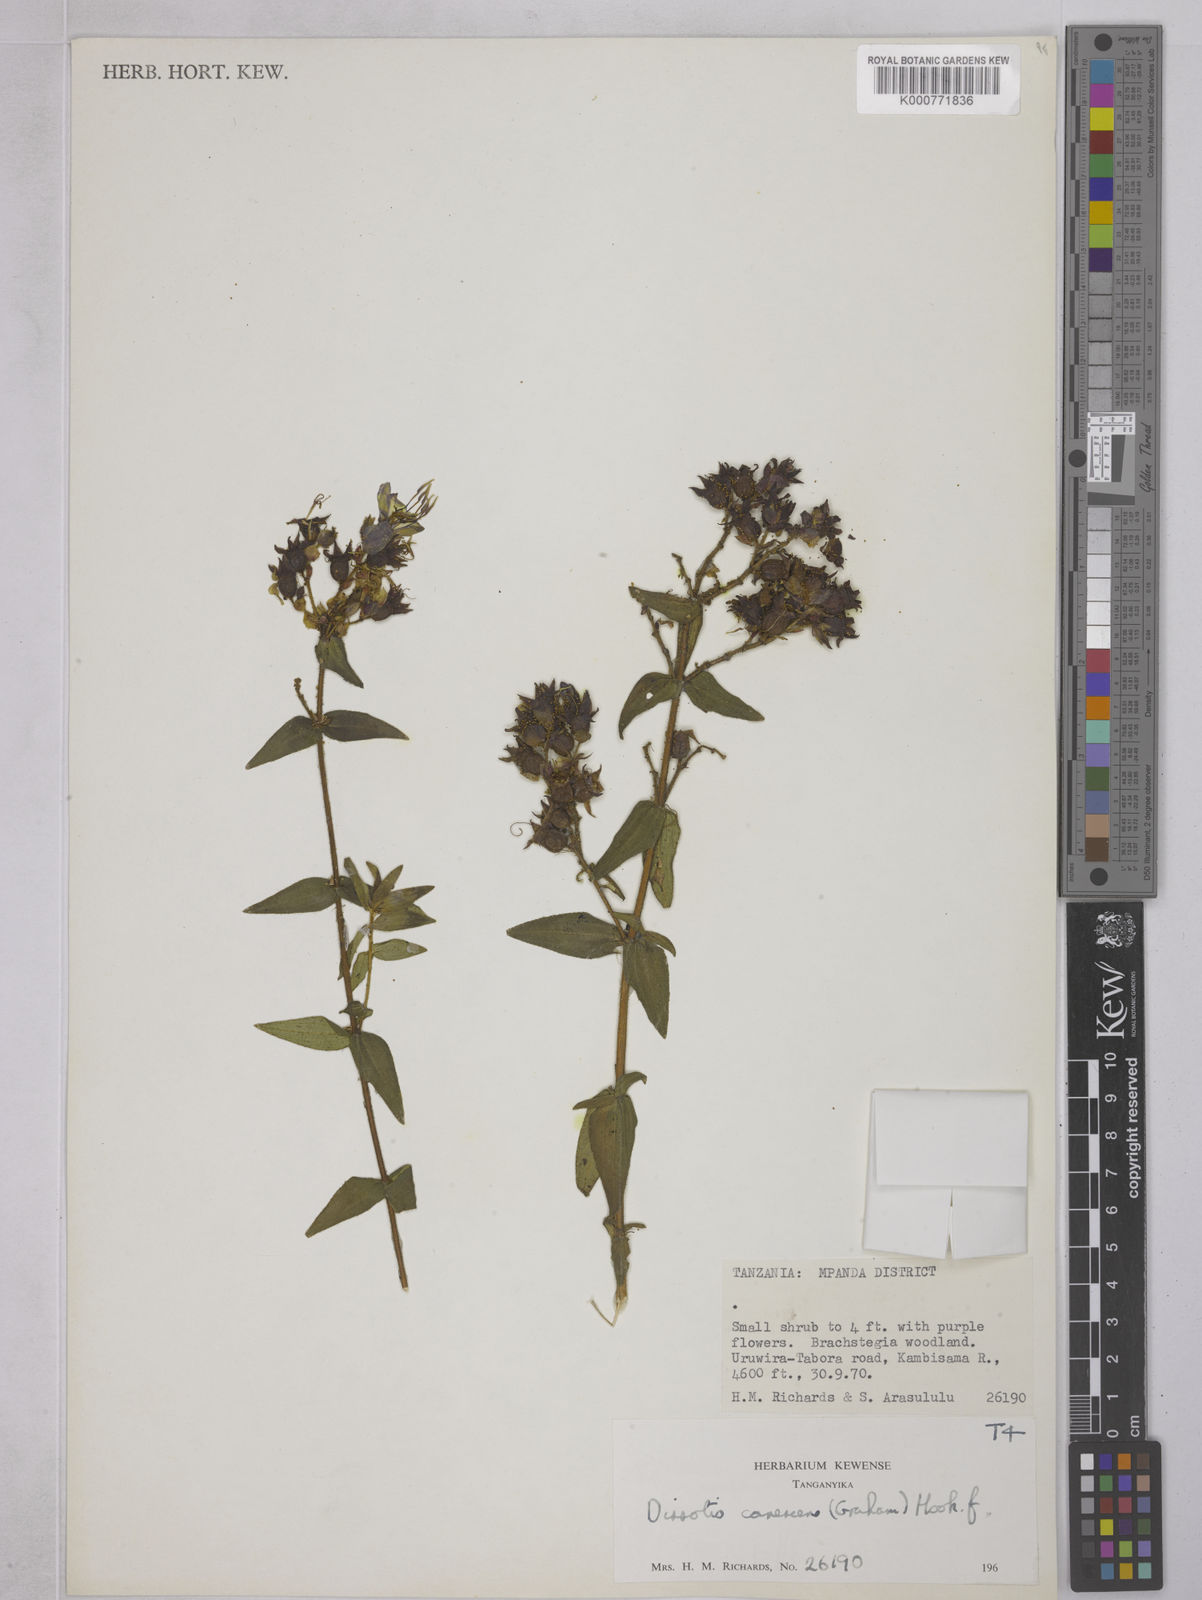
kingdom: Plantae
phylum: Tracheophyta
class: Magnoliopsida
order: Myrtales
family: Melastomataceae
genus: Argyrella
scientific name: Argyrella canescens
